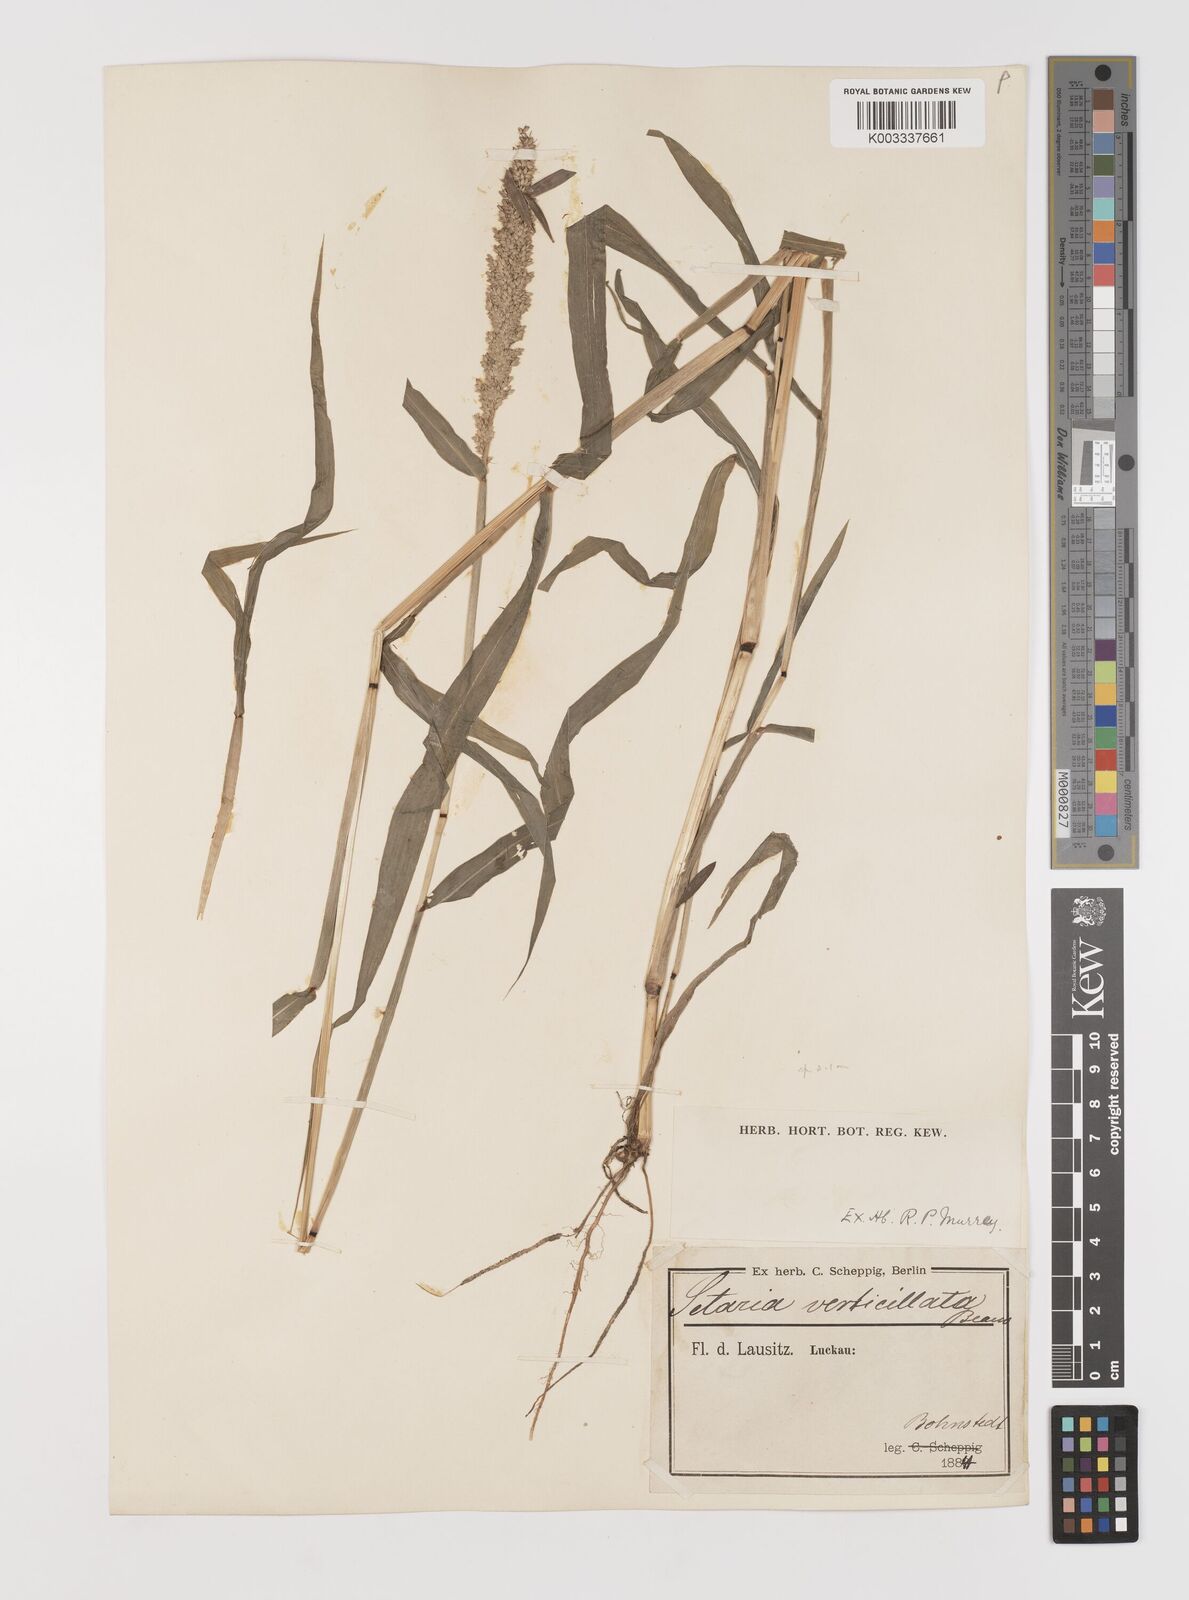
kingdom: Plantae
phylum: Tracheophyta
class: Liliopsida
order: Poales
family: Poaceae
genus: Setaria
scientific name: Setaria verticillata
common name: Hooked bristlegrass
